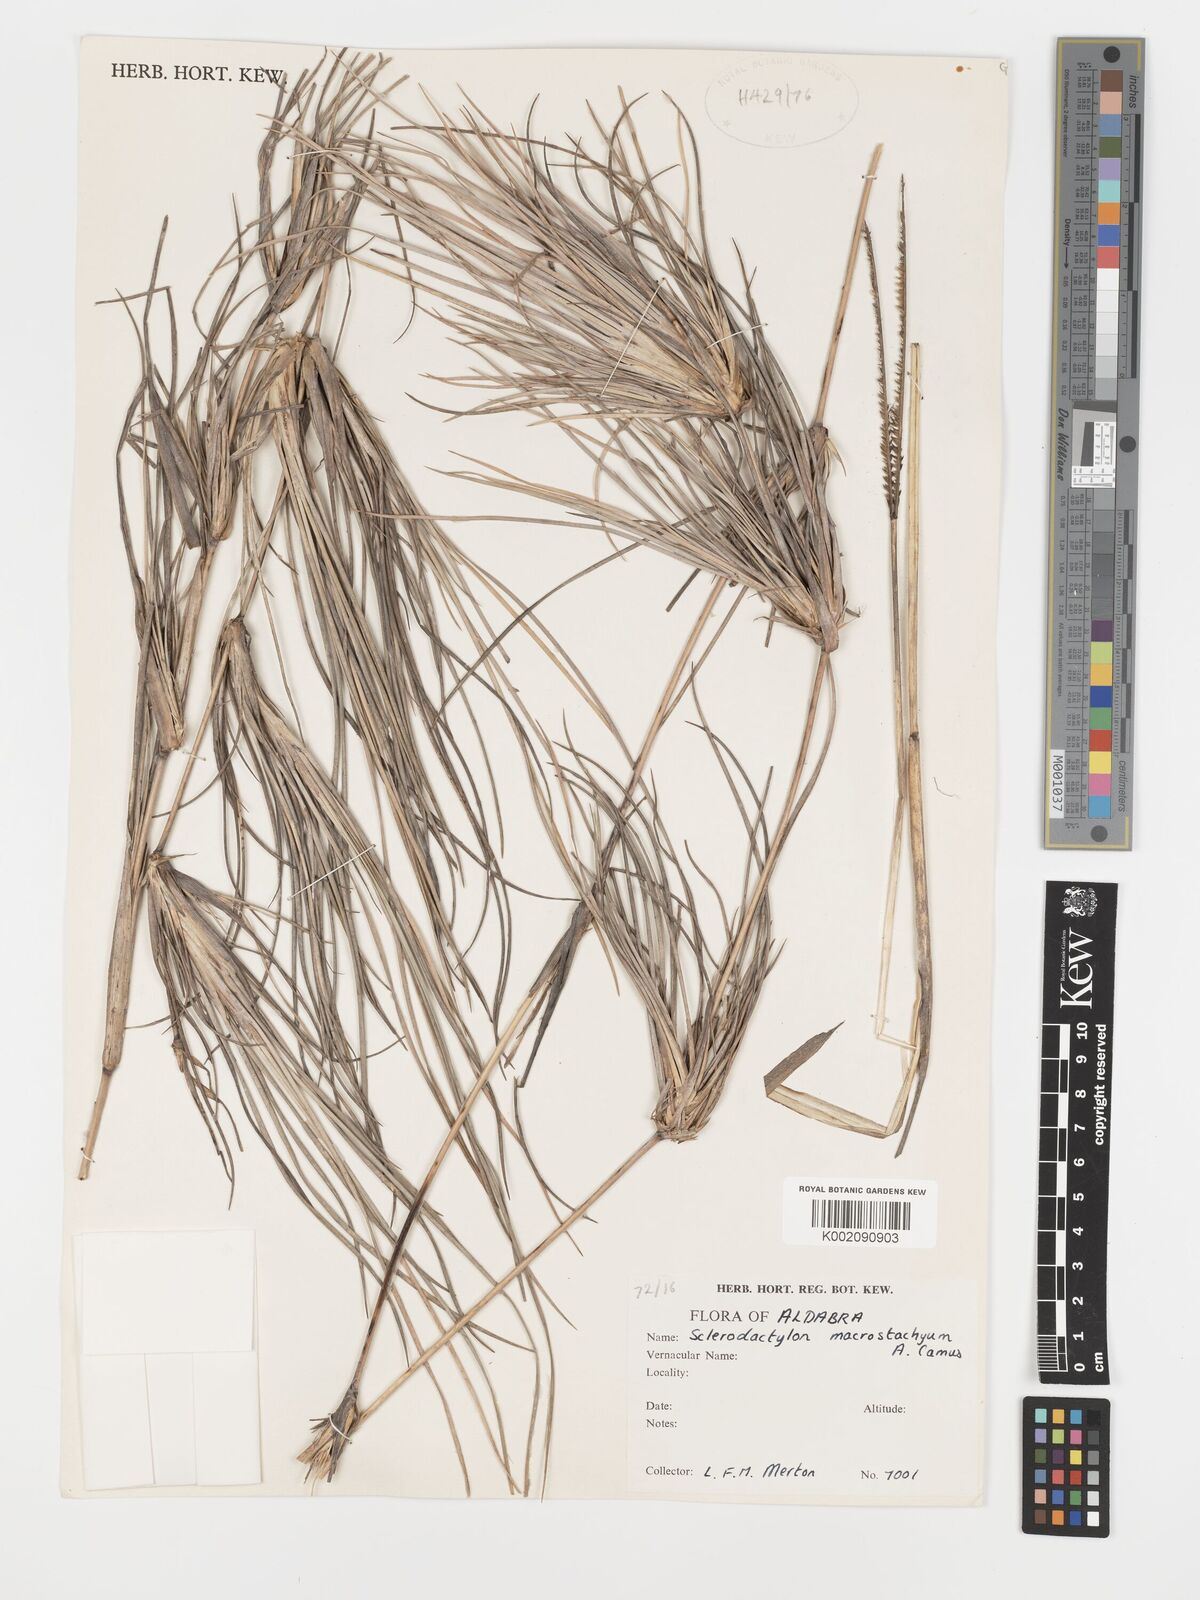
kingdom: Plantae
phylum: Tracheophyta
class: Liliopsida
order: Poales
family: Poaceae
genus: Sclerodactylon
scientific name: Sclerodactylon macrostachyum
